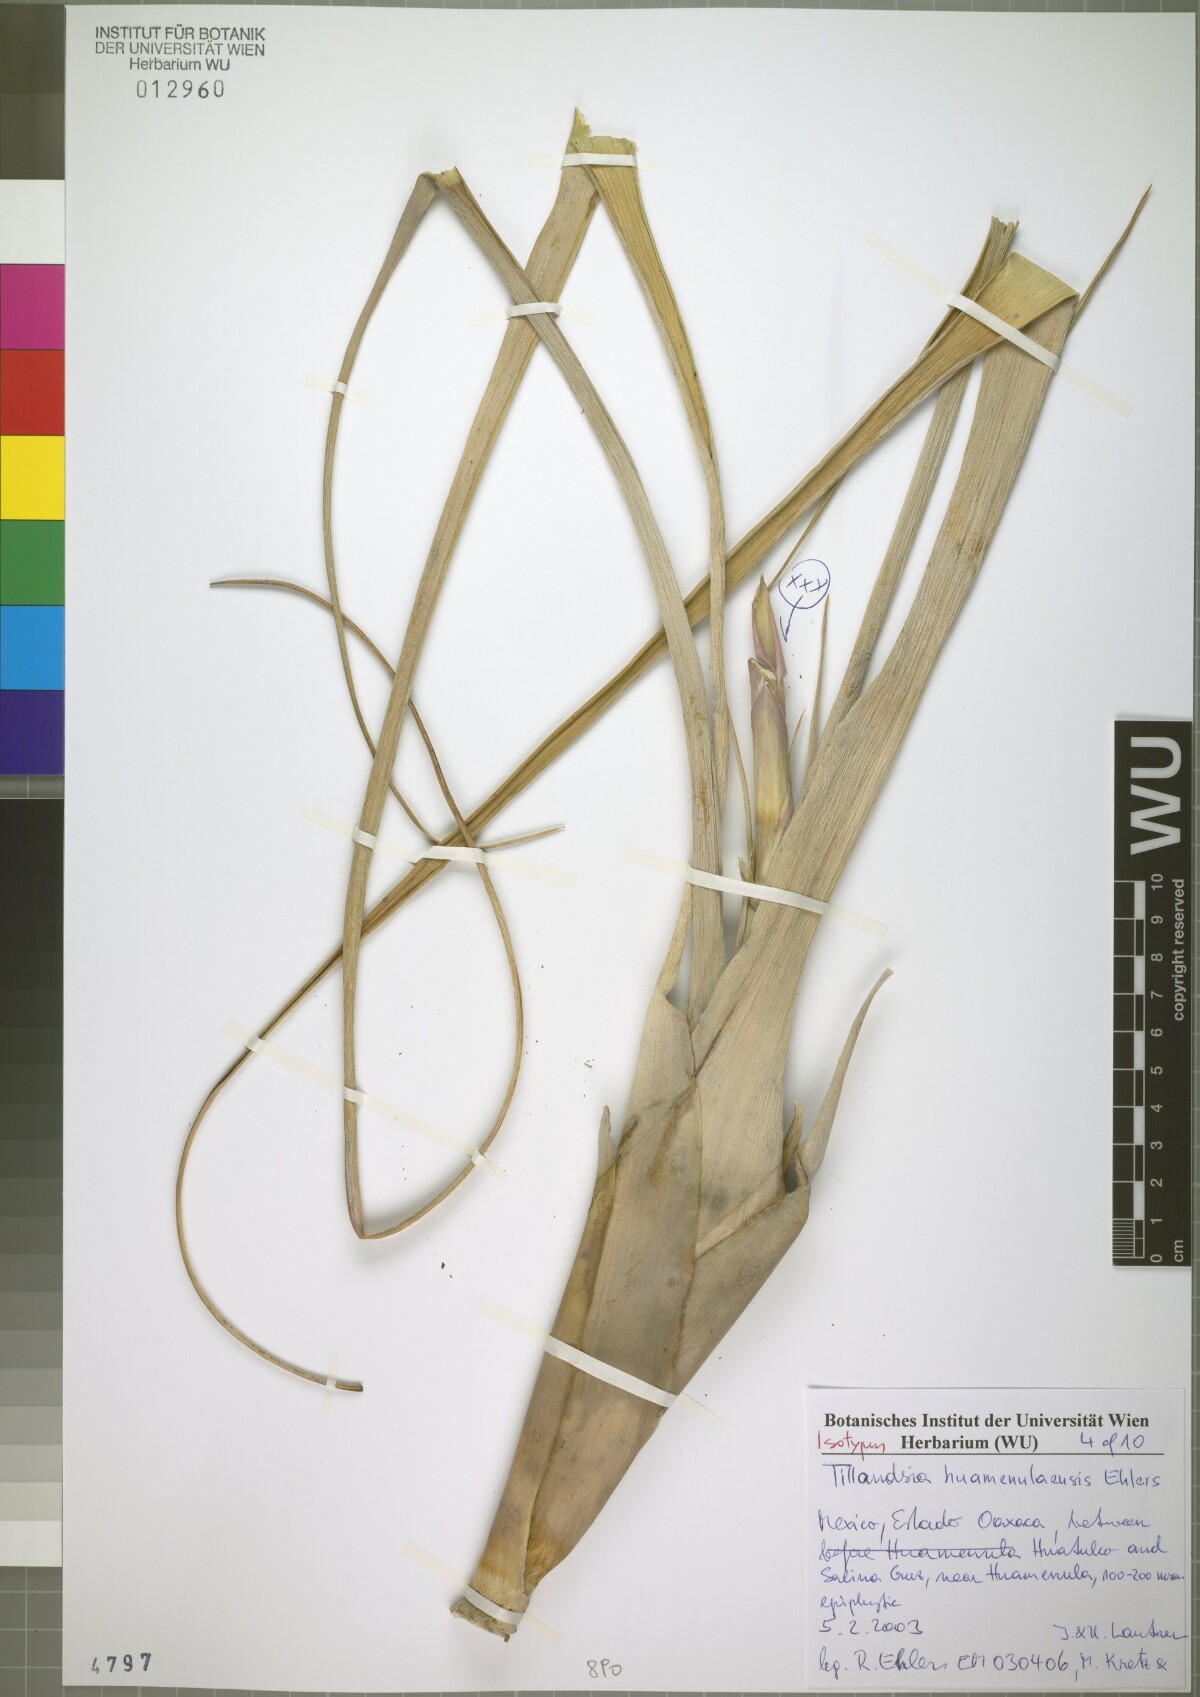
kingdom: Plantae
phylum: Tracheophyta
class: Liliopsida
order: Poales
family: Bromeliaceae
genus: Tillandsia
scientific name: Tillandsia huamenulaensis
